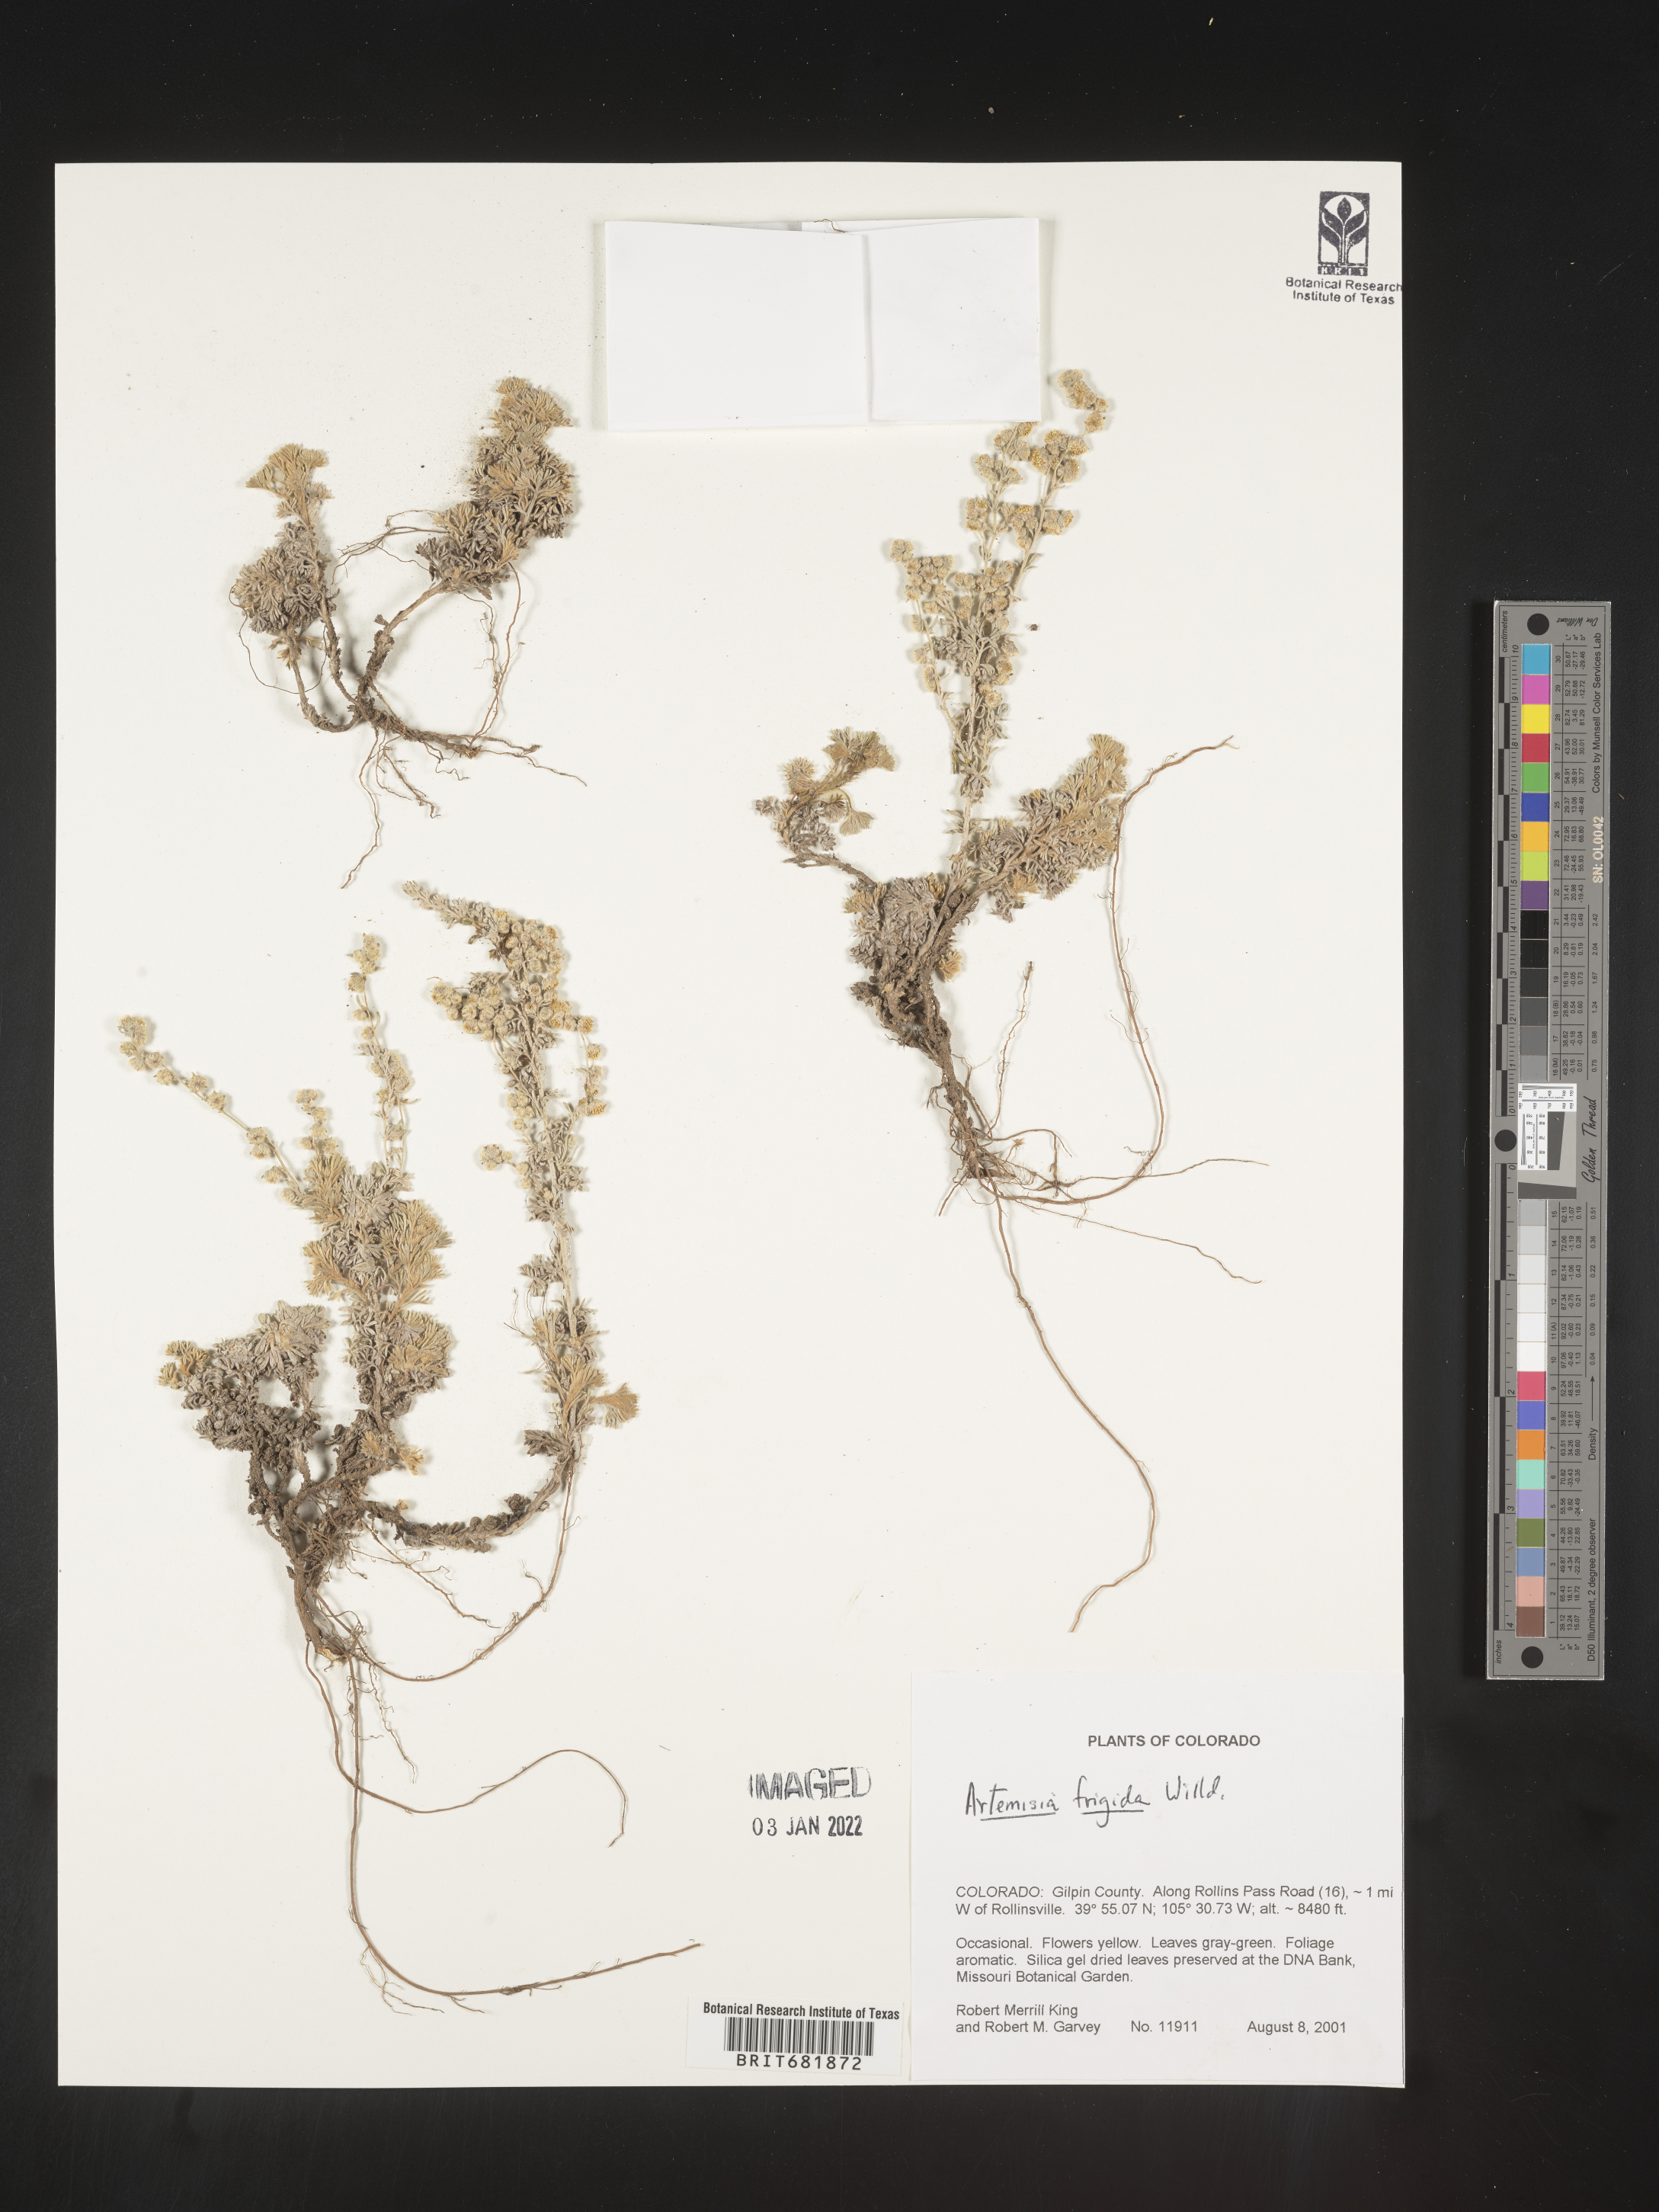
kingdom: Plantae
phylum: Tracheophyta
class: Magnoliopsida
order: Asterales
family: Asteraceae
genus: Artemisia
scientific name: Artemisia frigida
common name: Prairie sagewort
